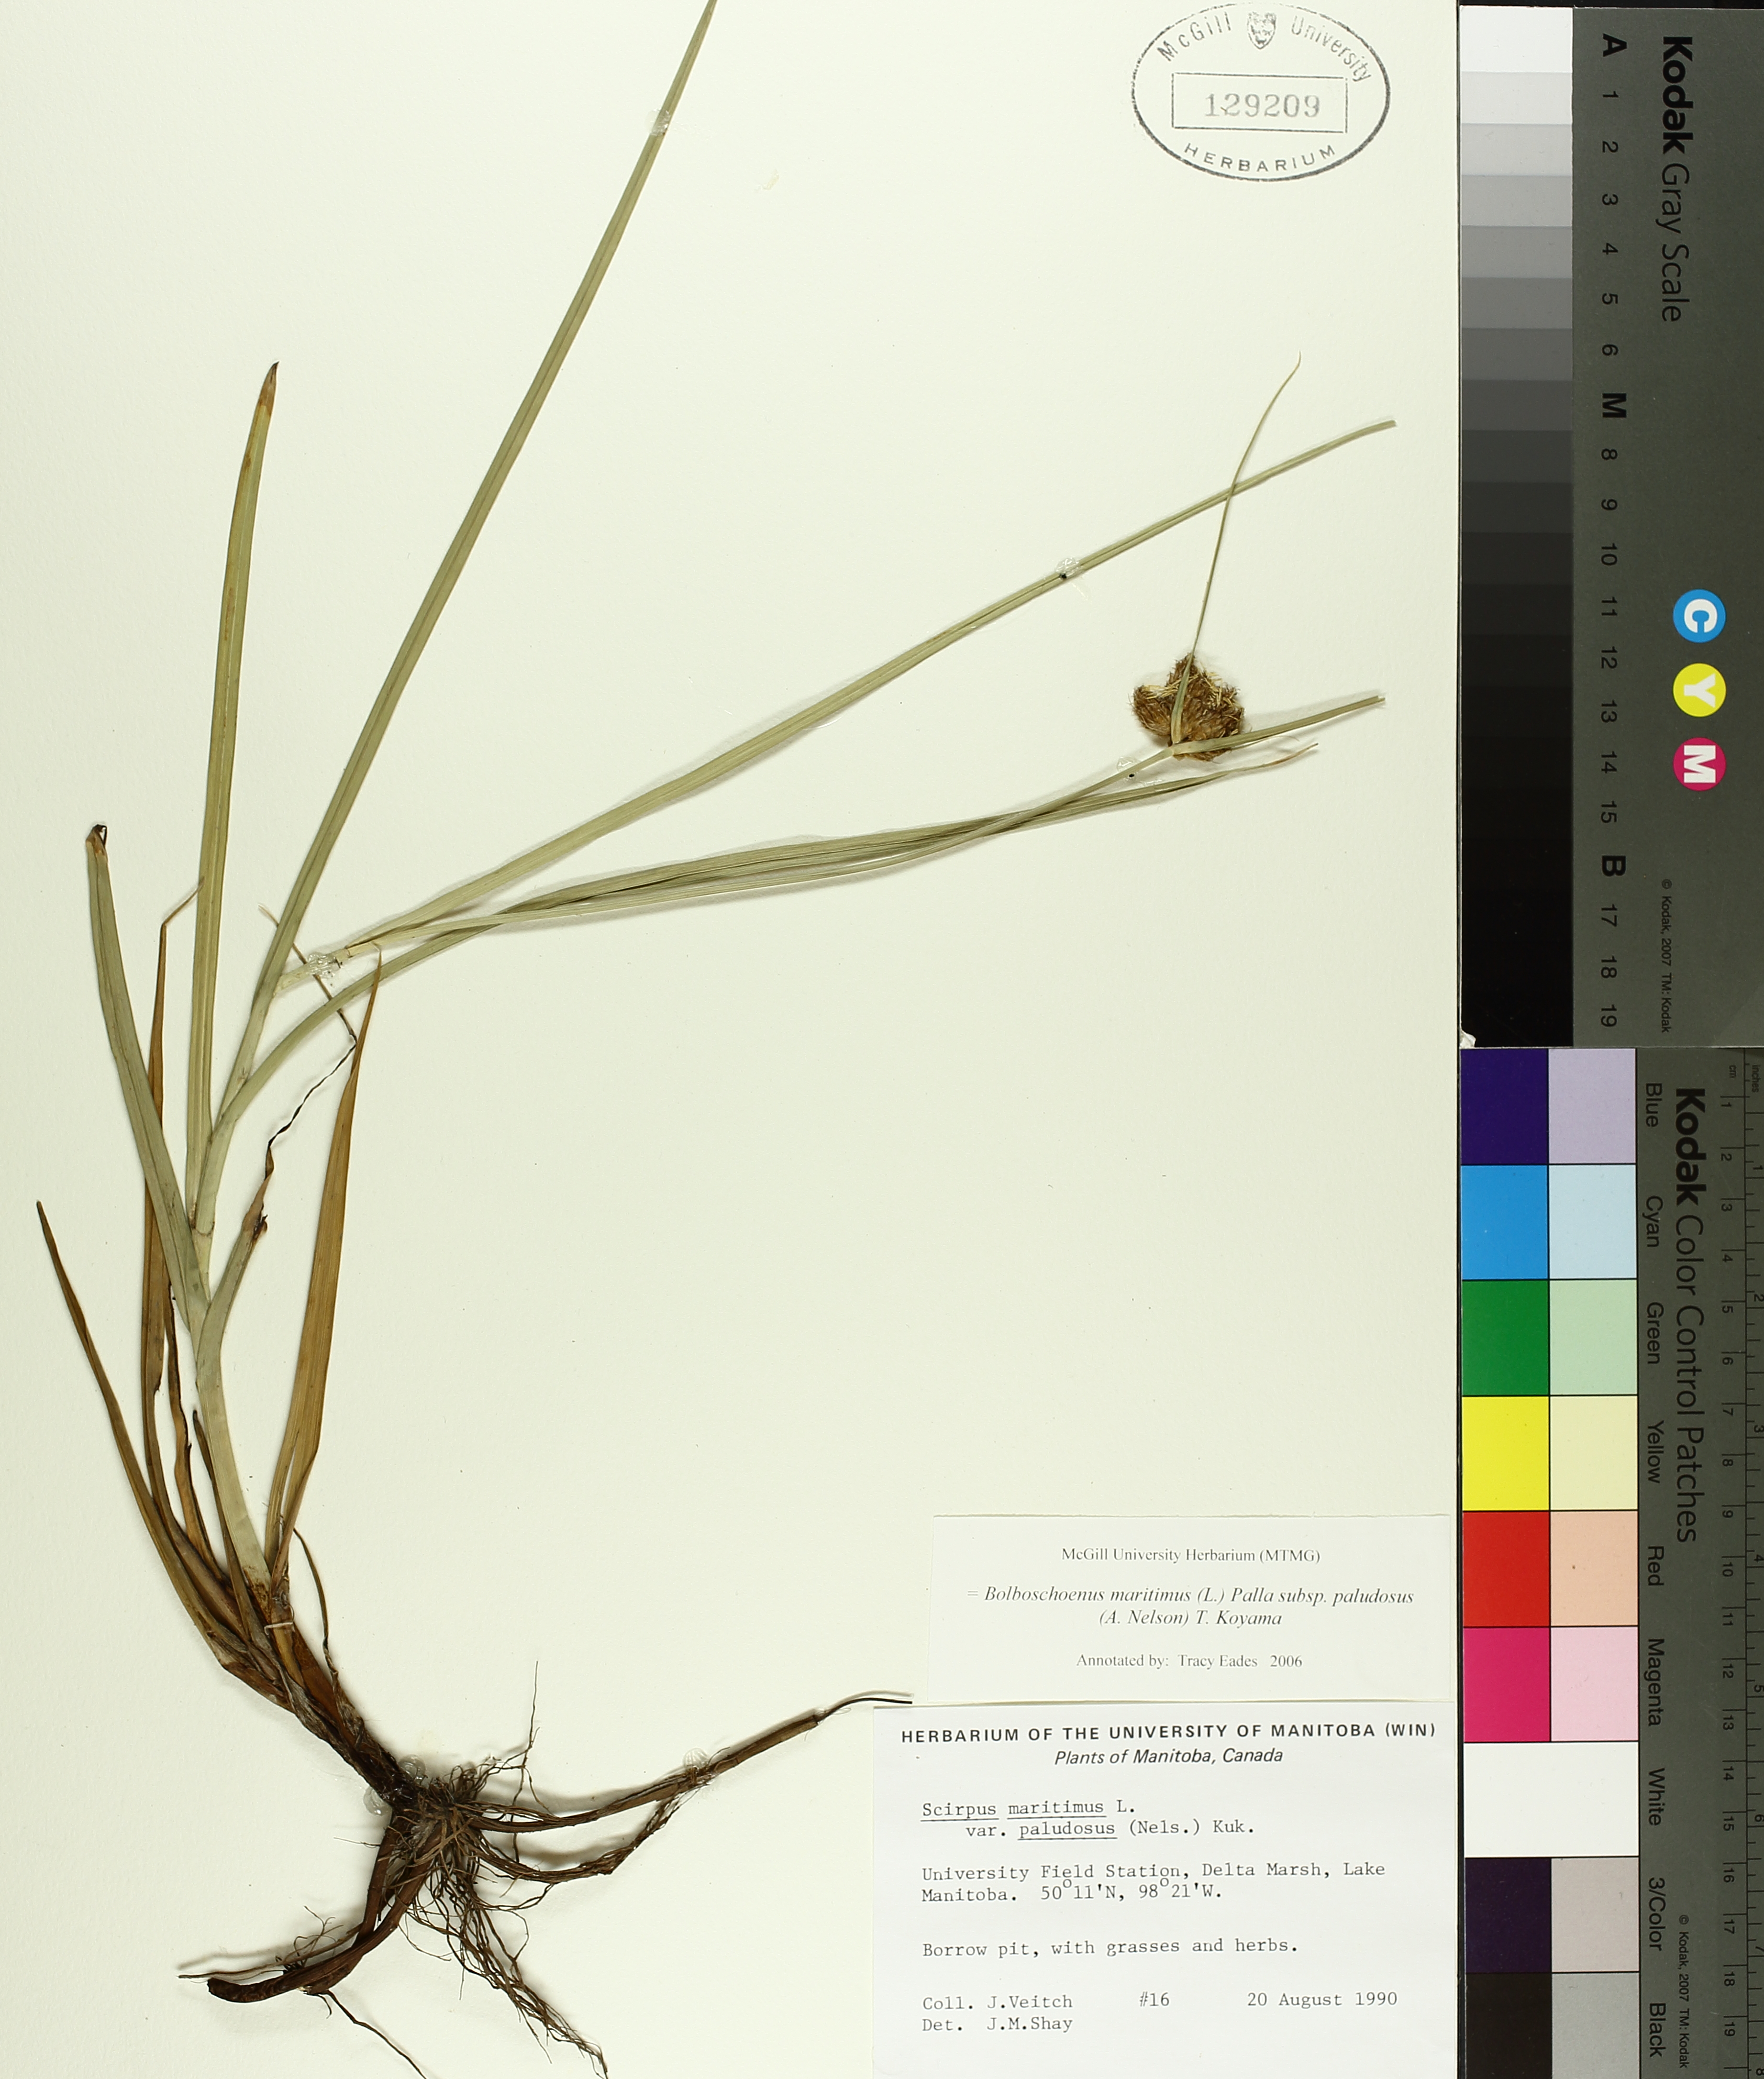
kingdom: Plantae
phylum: Tracheophyta
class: Liliopsida
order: Poales
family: Cyperaceae
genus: Bolboschoenus
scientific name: Bolboschoenus maritimus
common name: Sea club-rush
